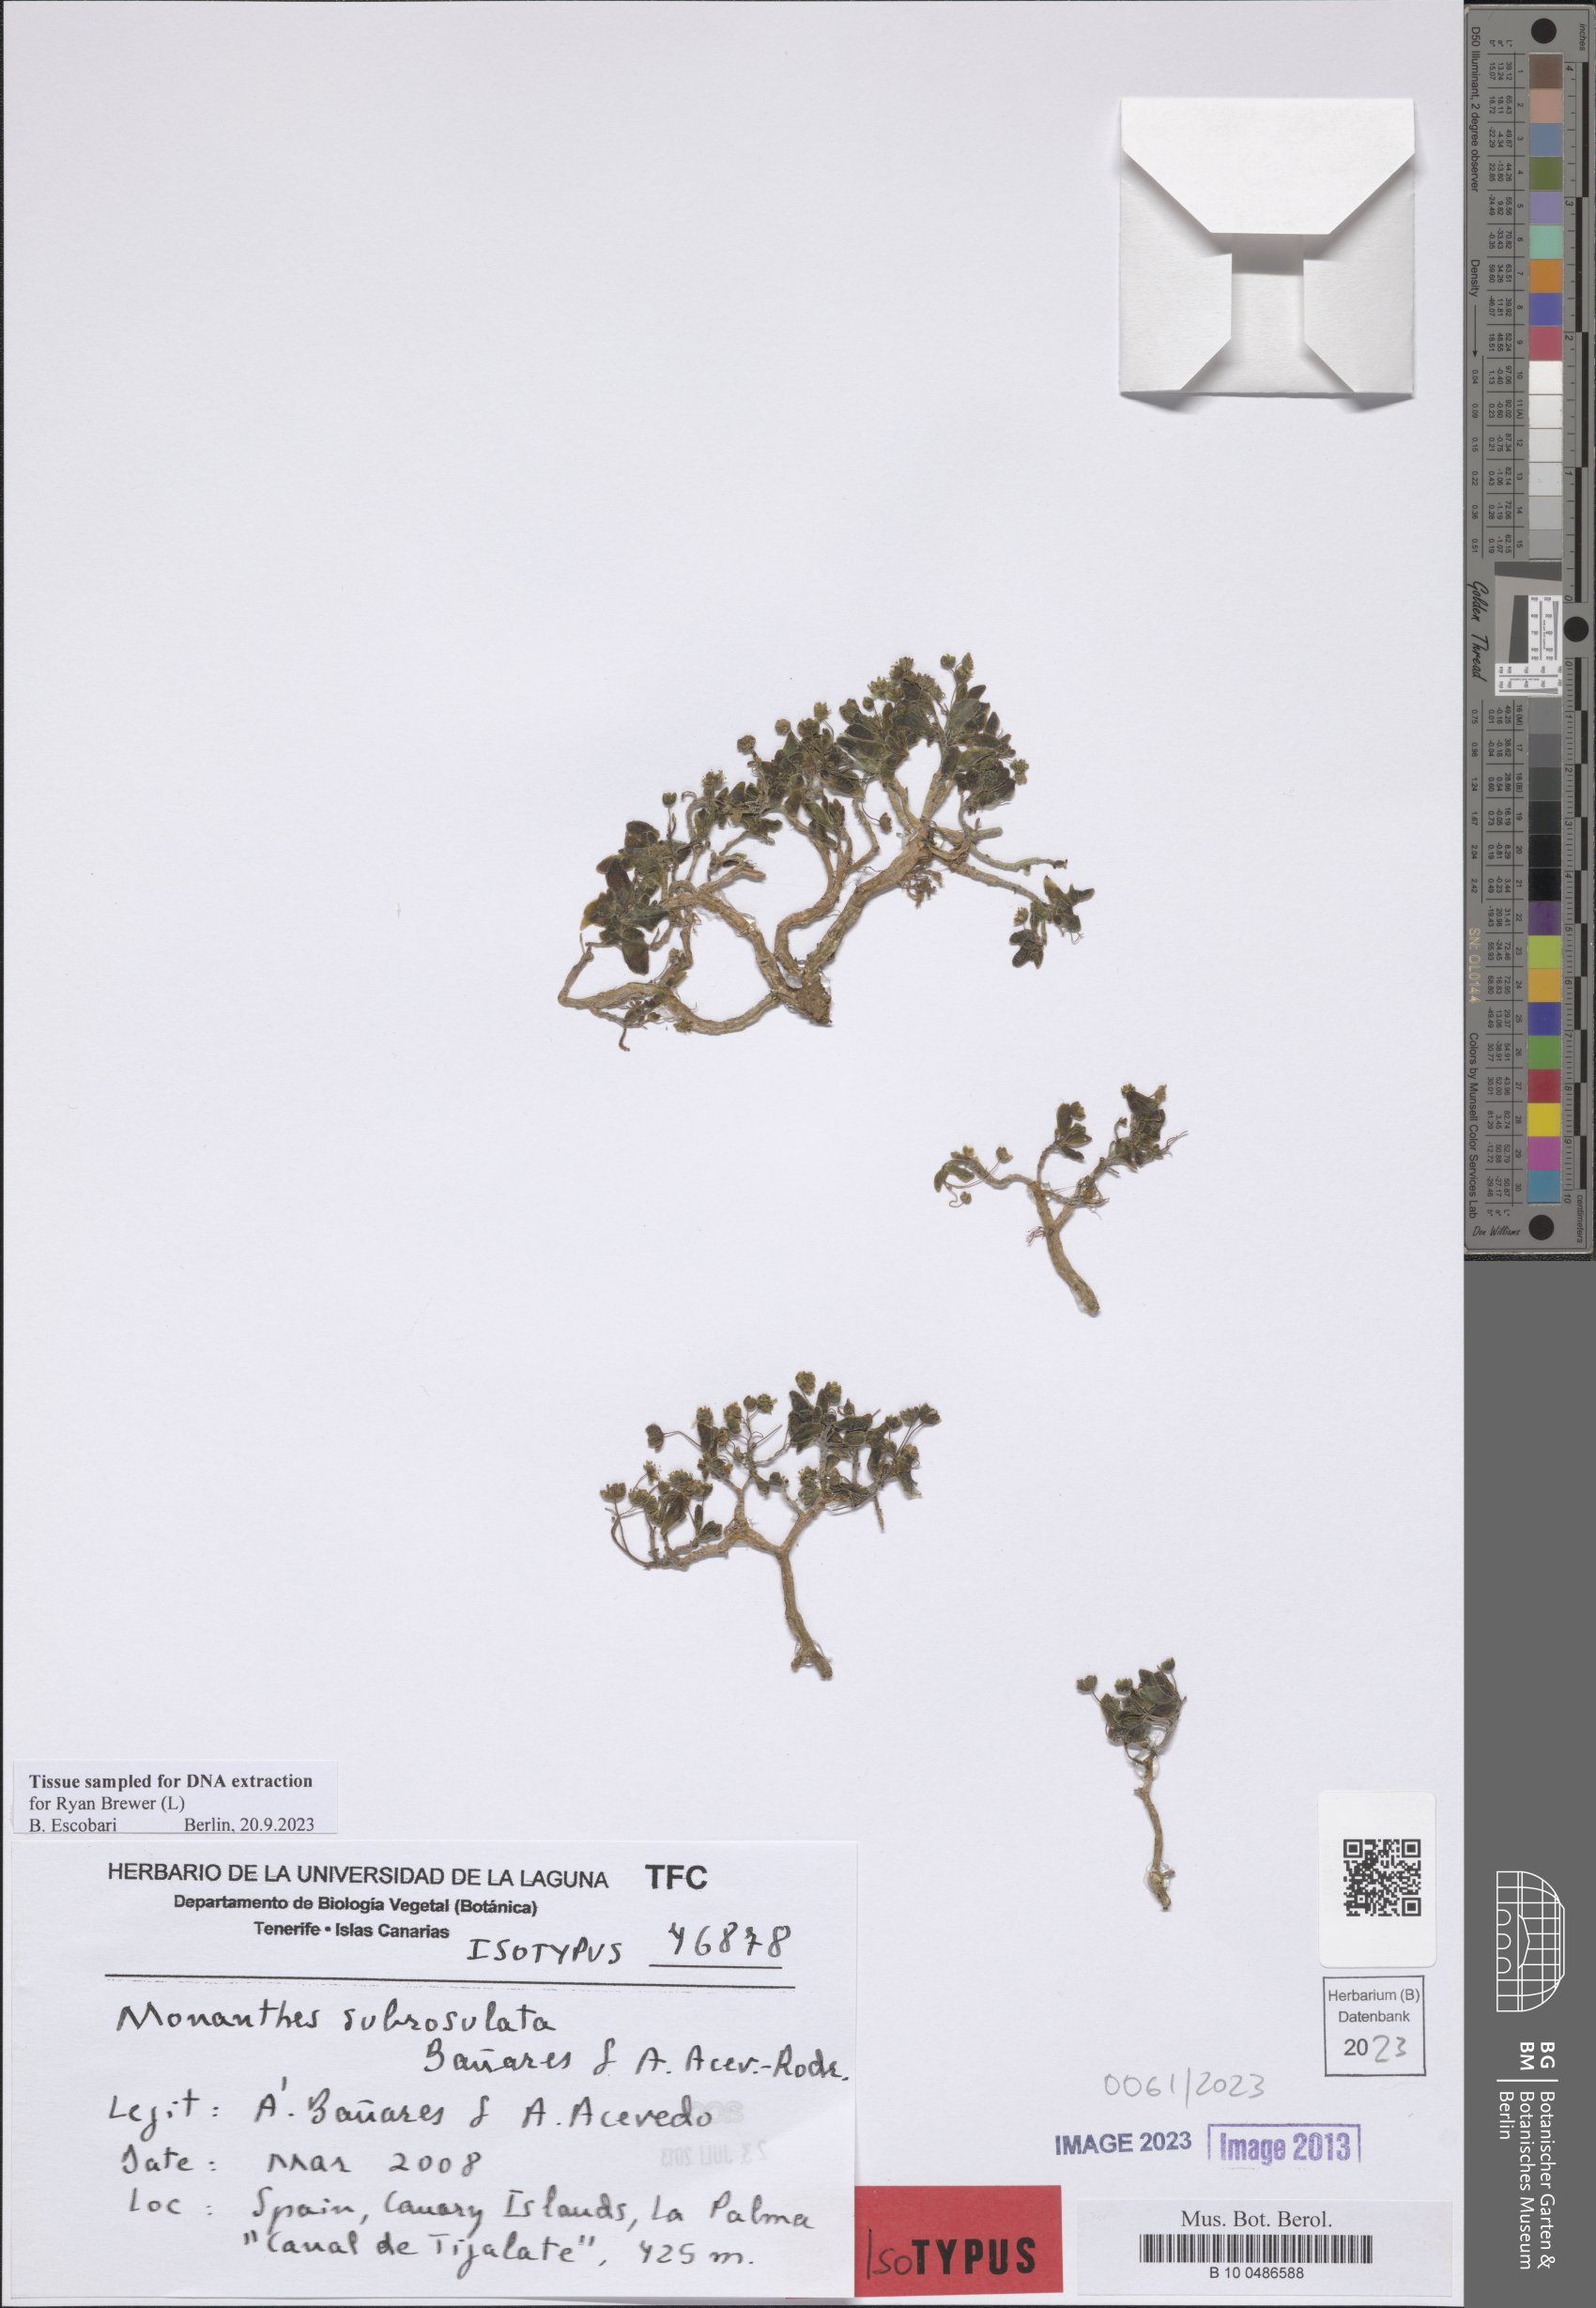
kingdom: Plantae
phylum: Tracheophyta
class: Magnoliopsida
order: Saxifragales
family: Crassulaceae
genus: Monanthes
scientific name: Monanthes subrosulata
